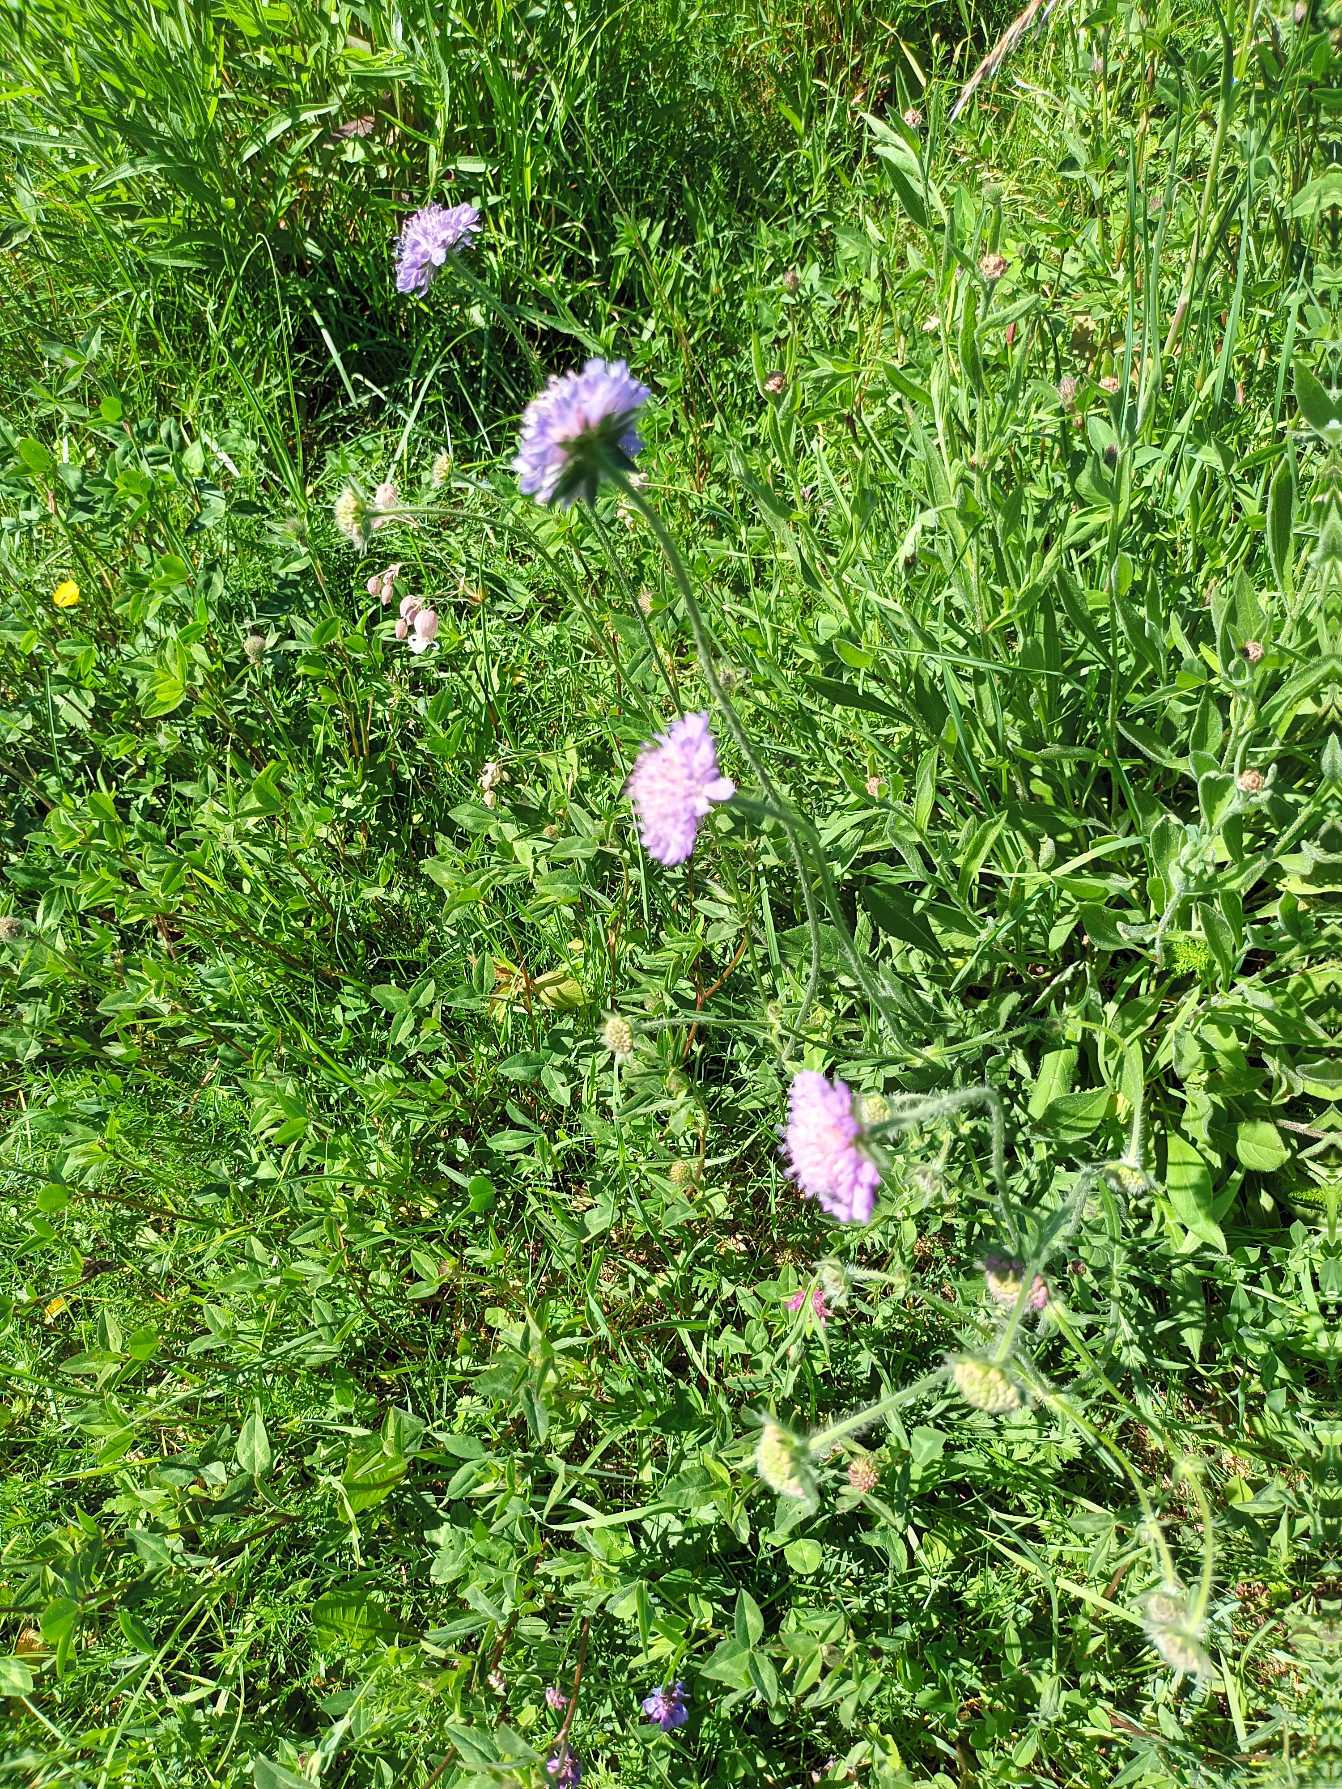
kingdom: Plantae
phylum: Tracheophyta
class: Magnoliopsida
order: Dipsacales
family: Caprifoliaceae
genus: Knautia
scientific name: Knautia arvensis
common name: Blåhat
